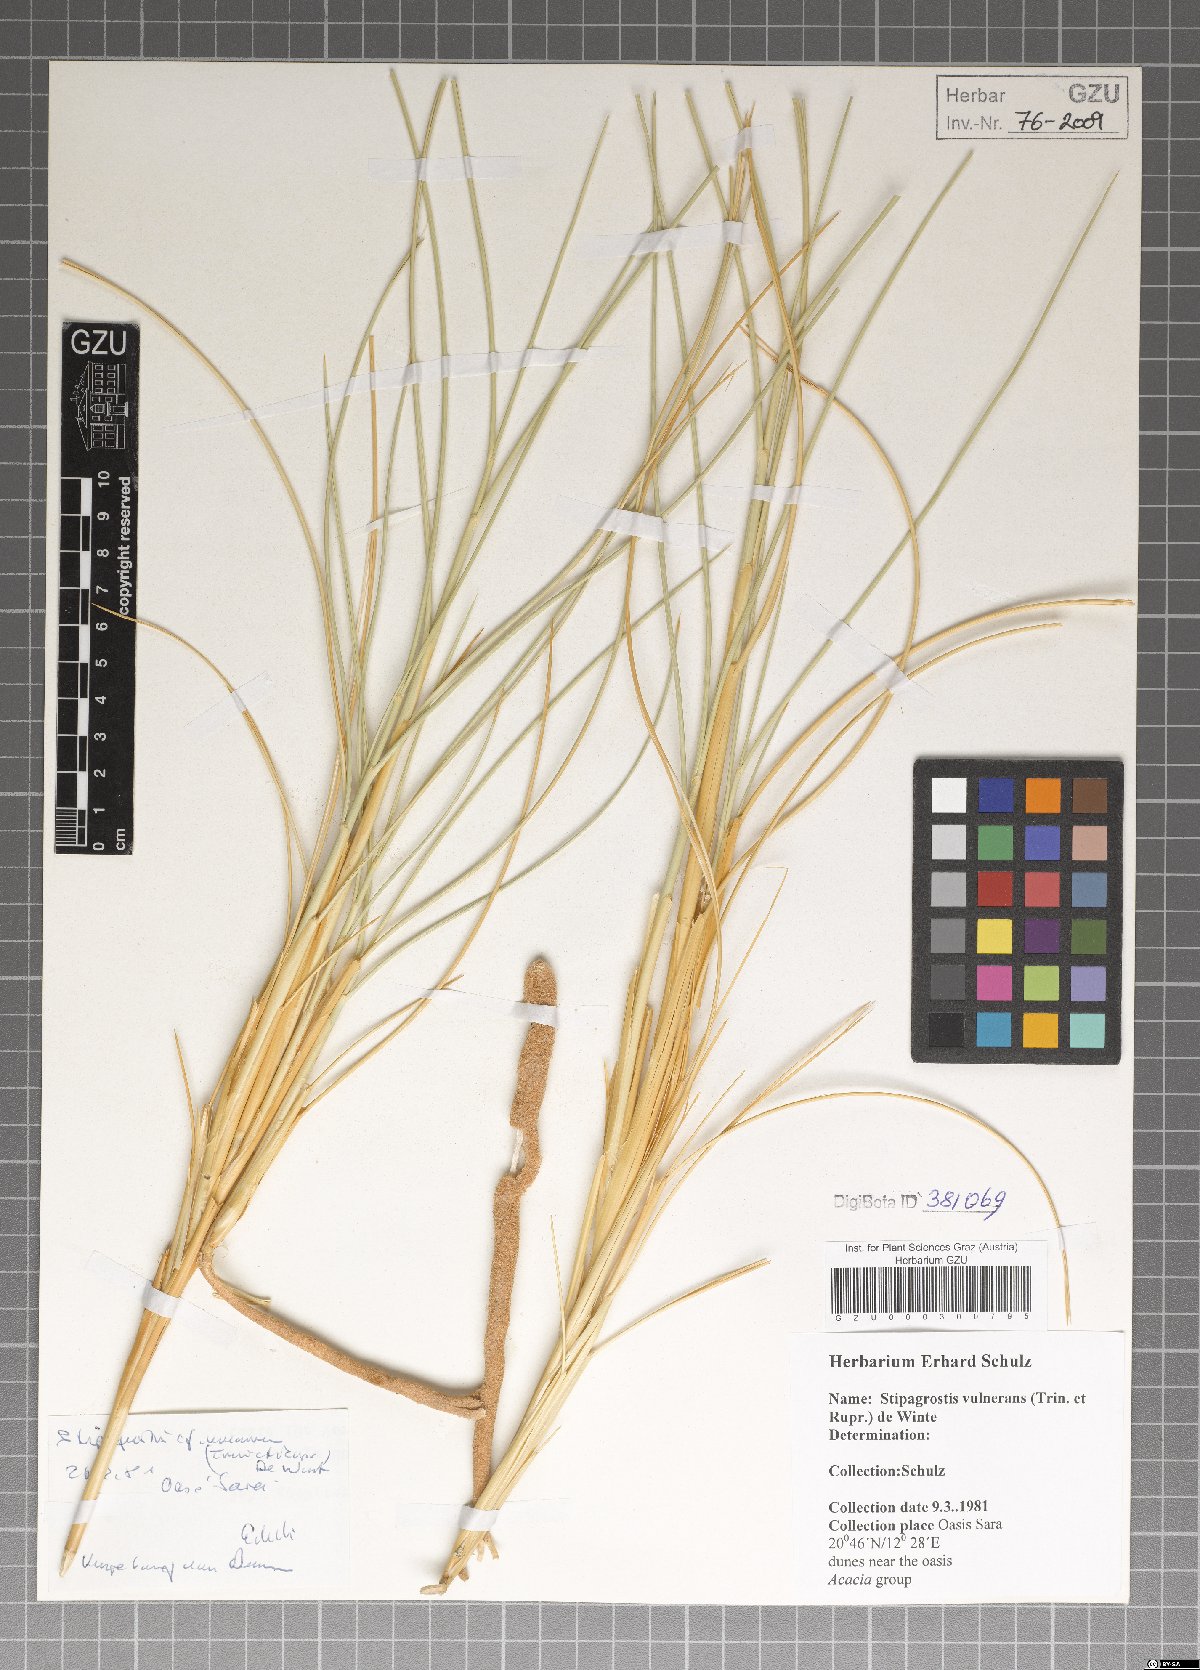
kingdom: Plantae
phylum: Tracheophyta
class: Liliopsida
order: Poales
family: Poaceae
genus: Stipagrostis
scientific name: Stipagrostis vulnerans
